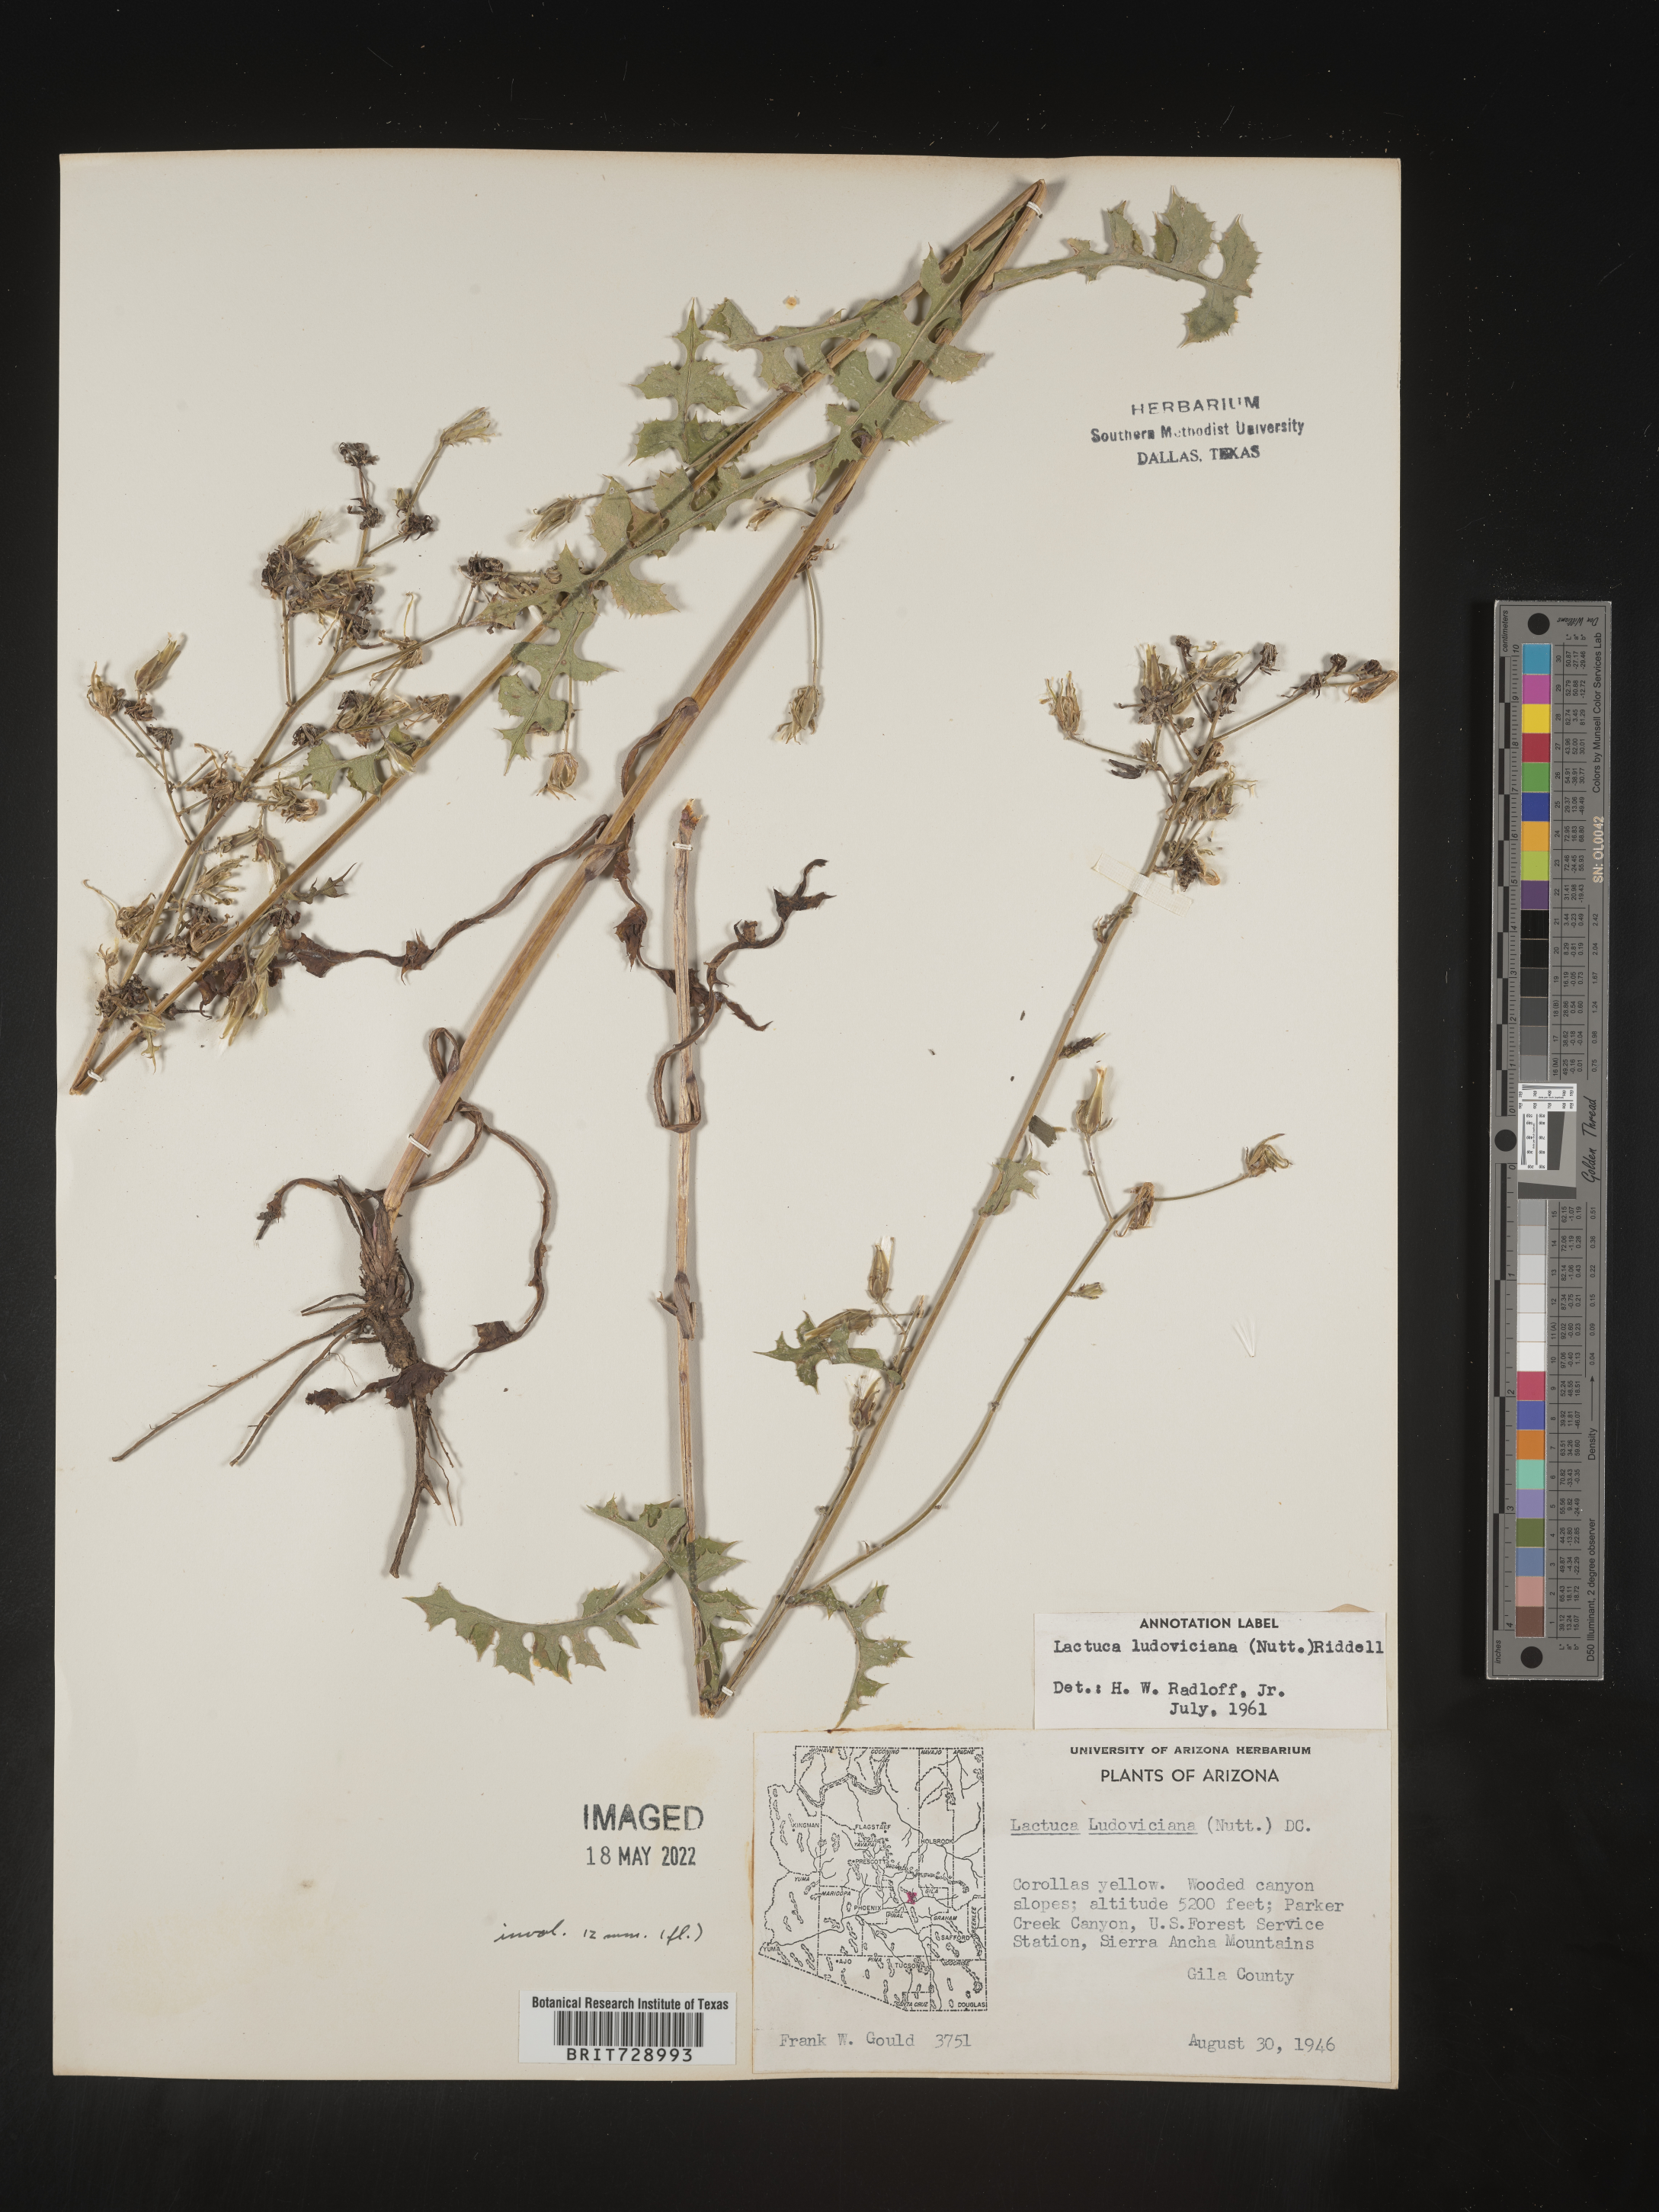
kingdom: Plantae
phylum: Tracheophyta
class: Magnoliopsida
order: Asterales
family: Asteraceae
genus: Lactuca
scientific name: Lactuca
